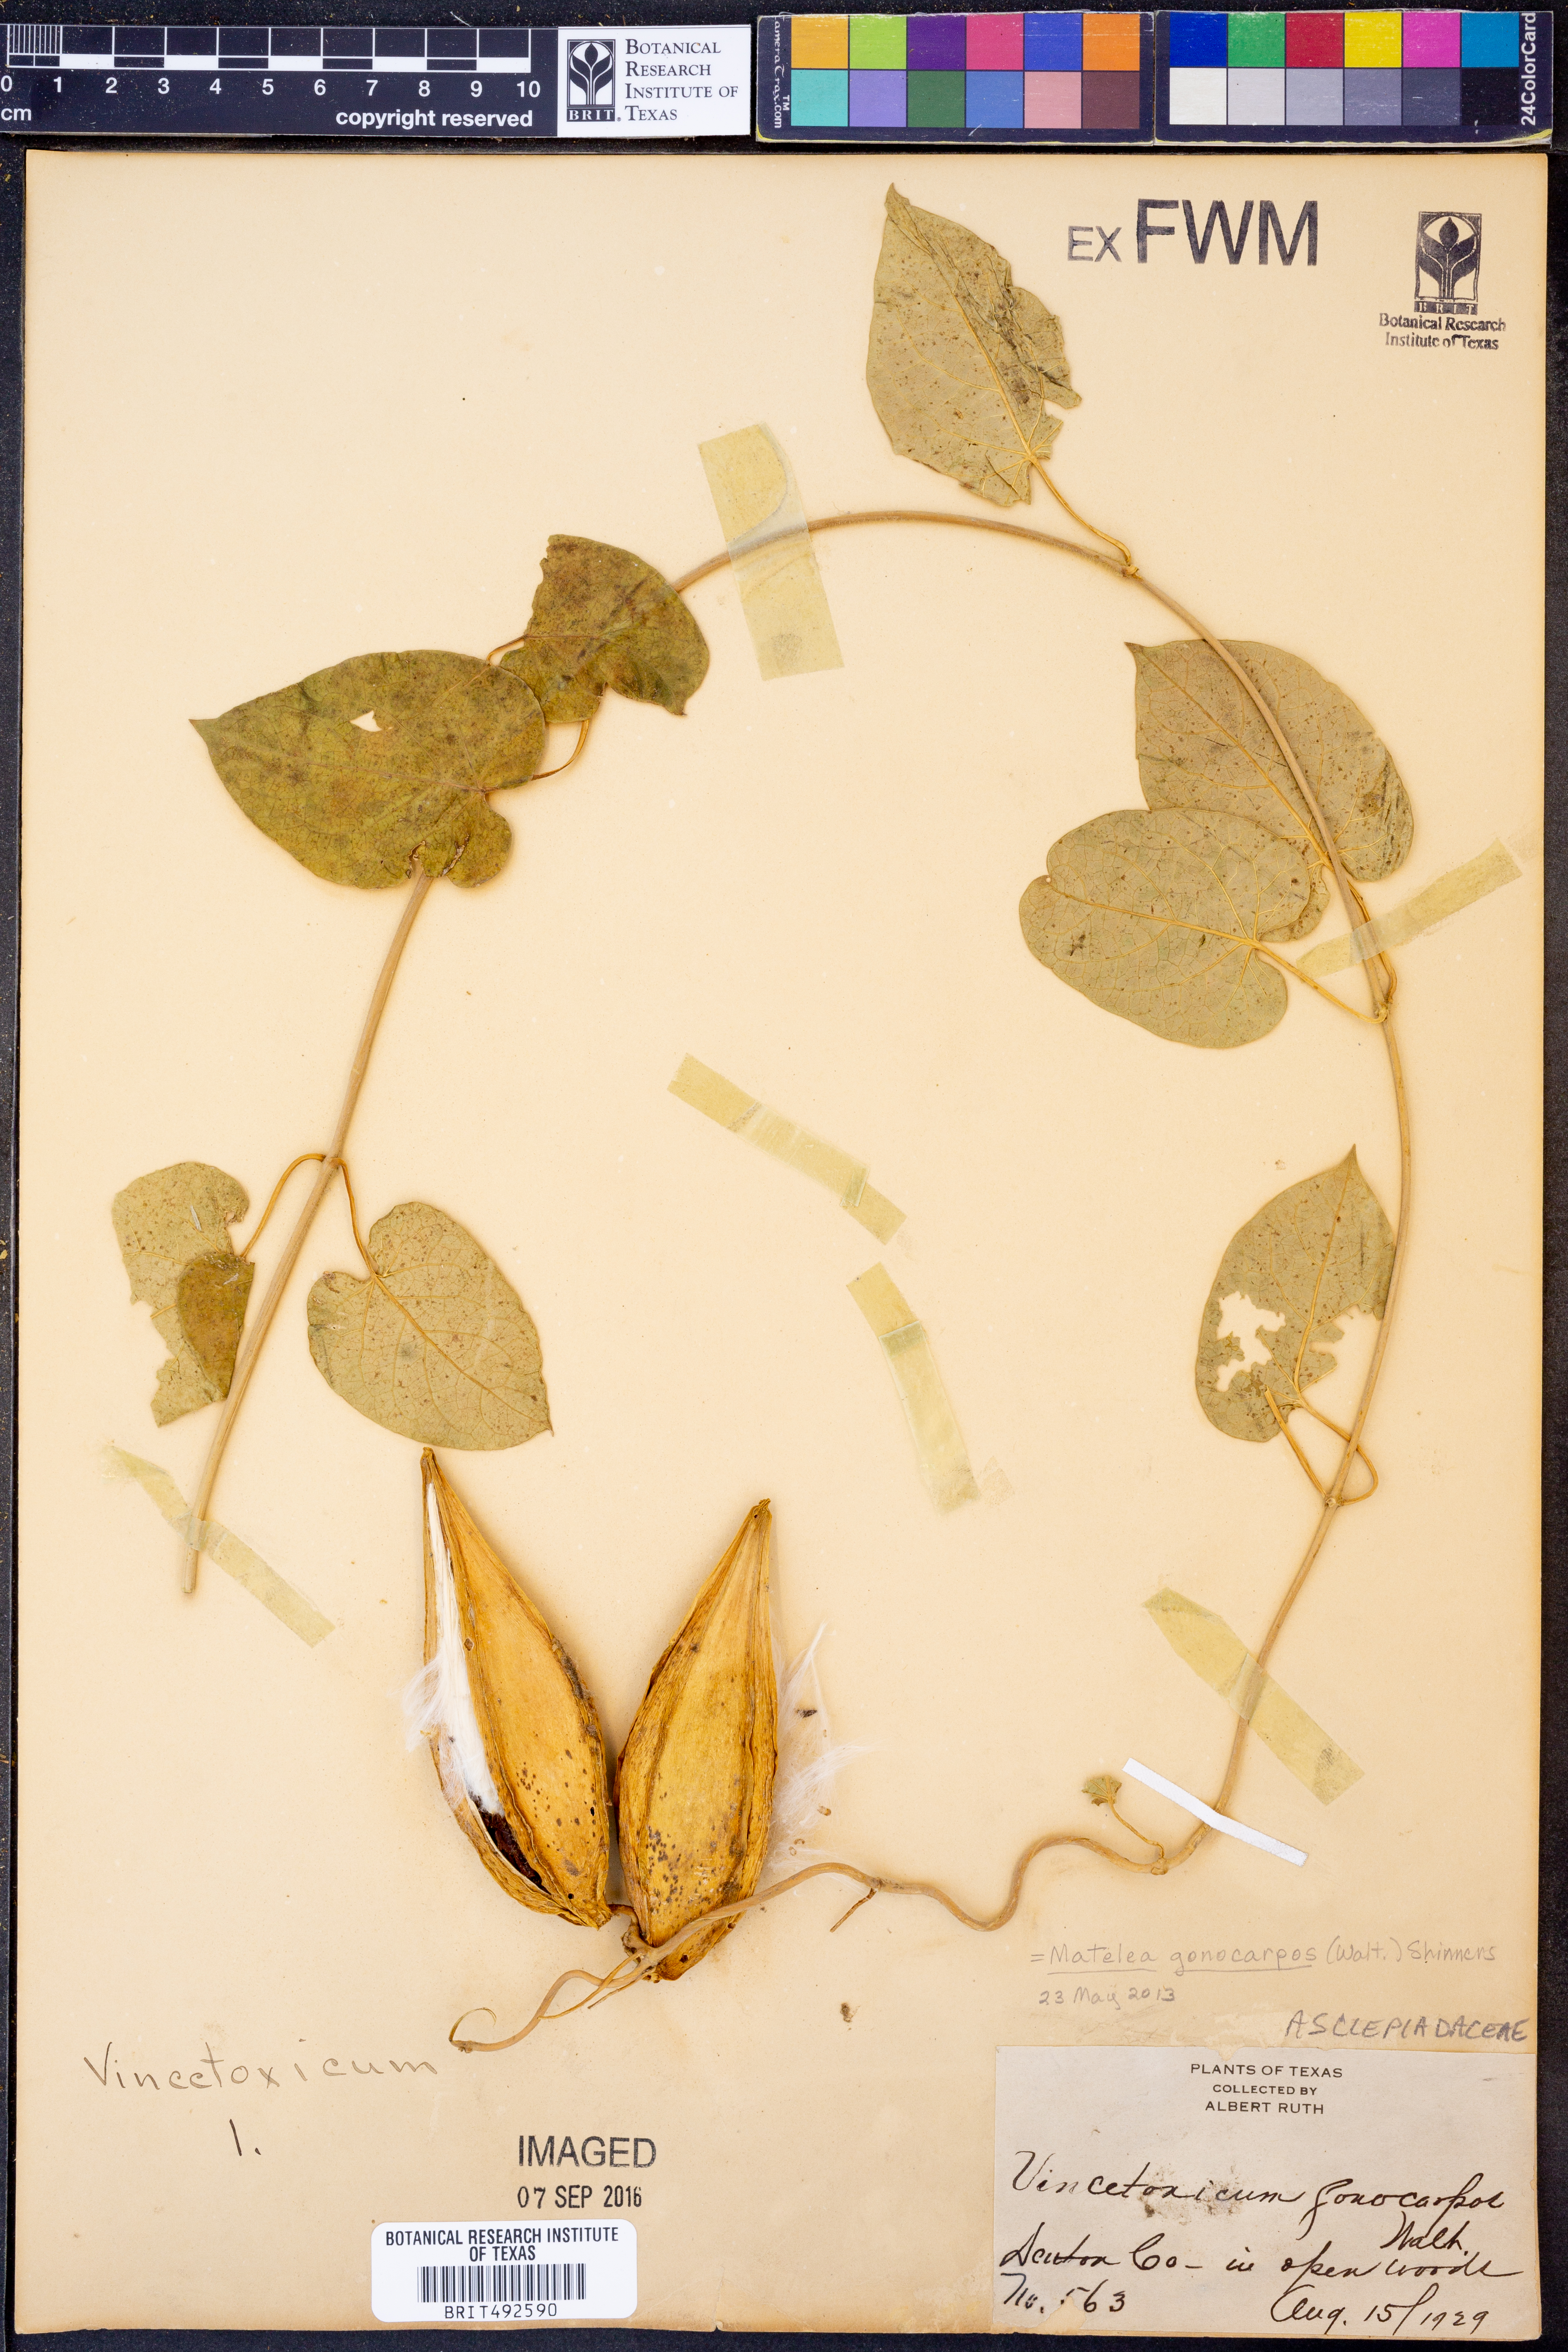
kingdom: Plantae
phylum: Tracheophyta
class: Magnoliopsida
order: Gentianales
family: Apocynaceae
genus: Gonolobus
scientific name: Gonolobus gonocarpus
